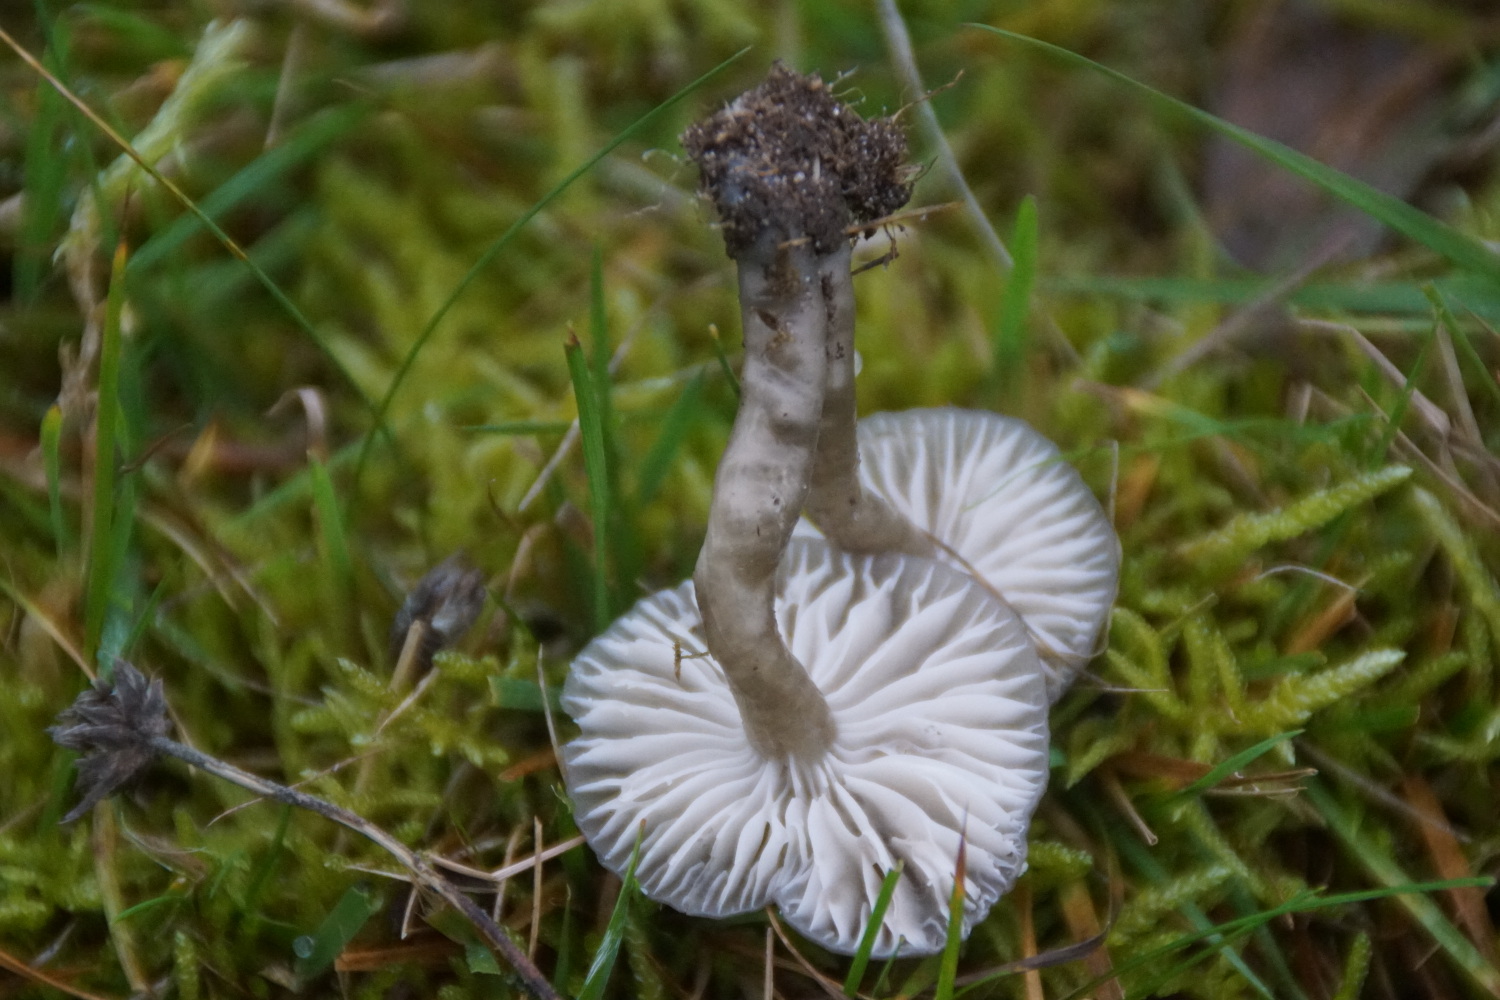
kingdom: Fungi
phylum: Basidiomycota
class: Agaricomycetes
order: Agaricales
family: Hygrophoraceae
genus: Gliophorus
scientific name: Gliophorus irrigatus
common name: slimet vokshat
